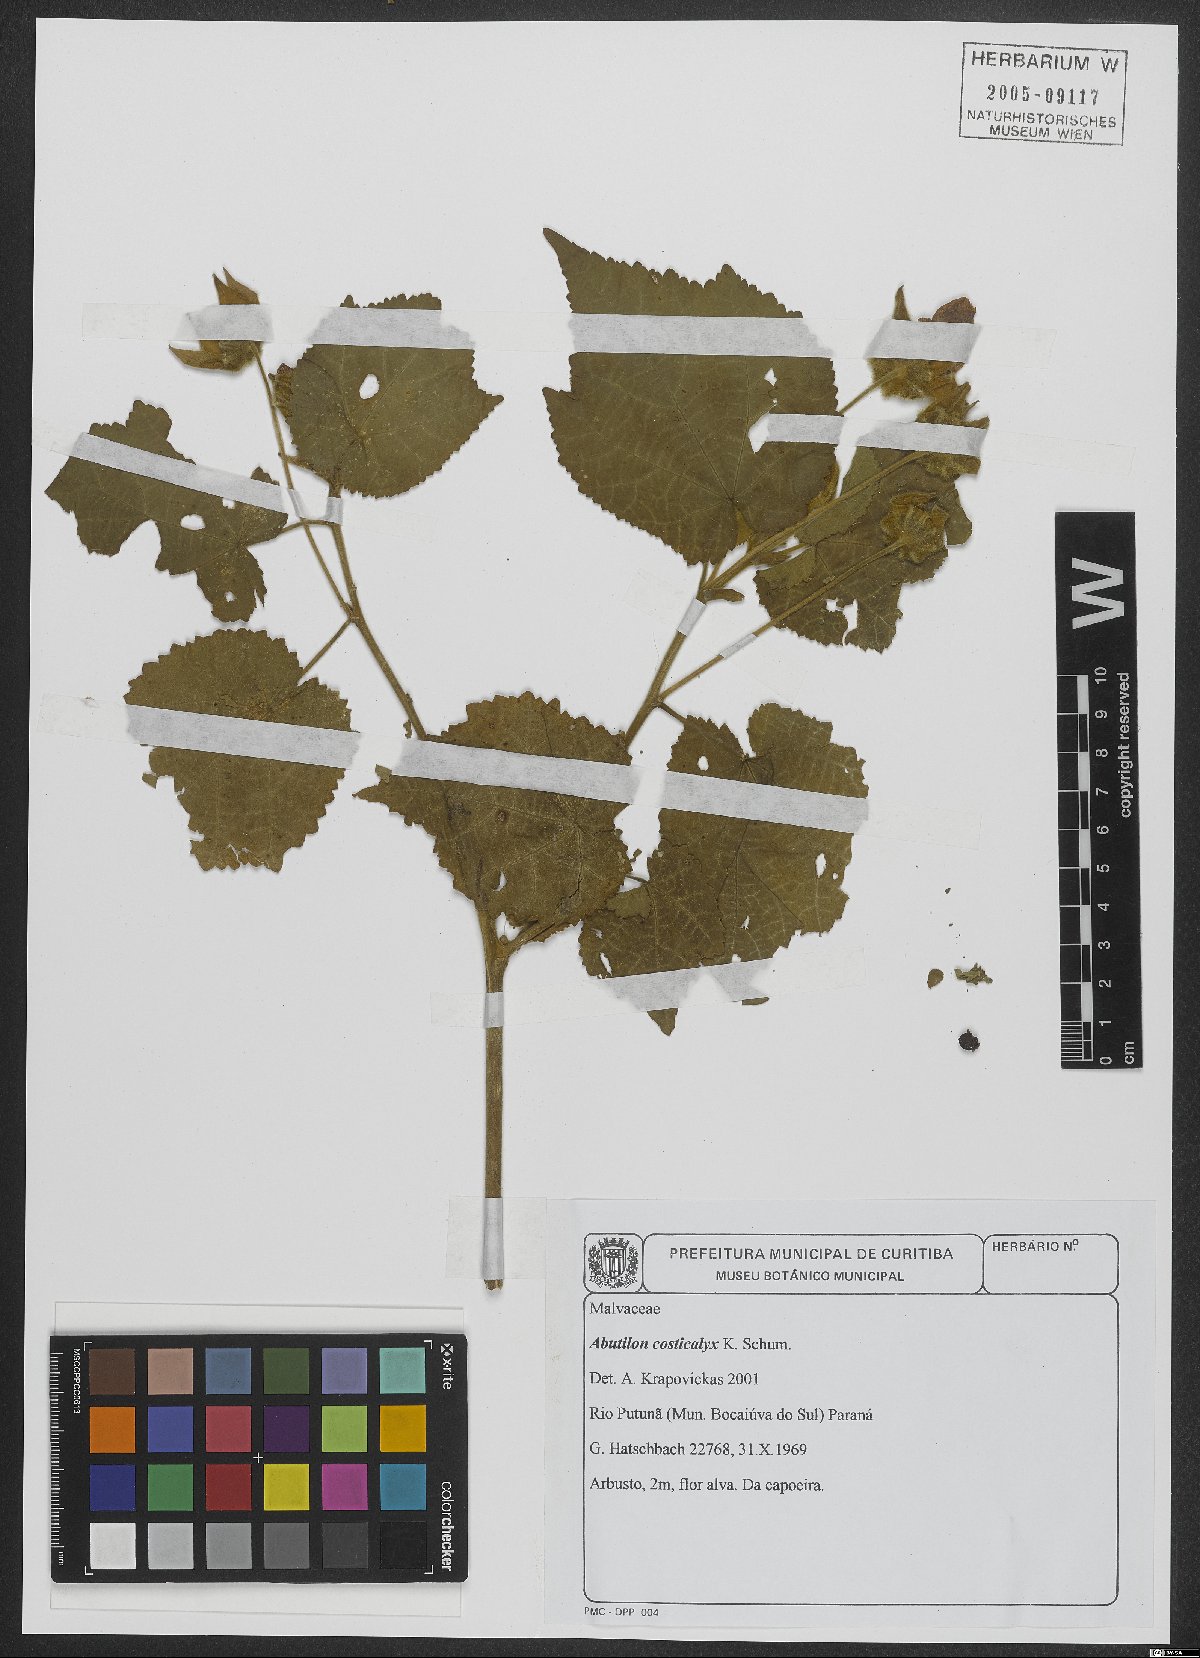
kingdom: Plantae
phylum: Tracheophyta
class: Magnoliopsida
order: Malvales
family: Malvaceae
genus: Callianthe
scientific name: Callianthe costicalyx
